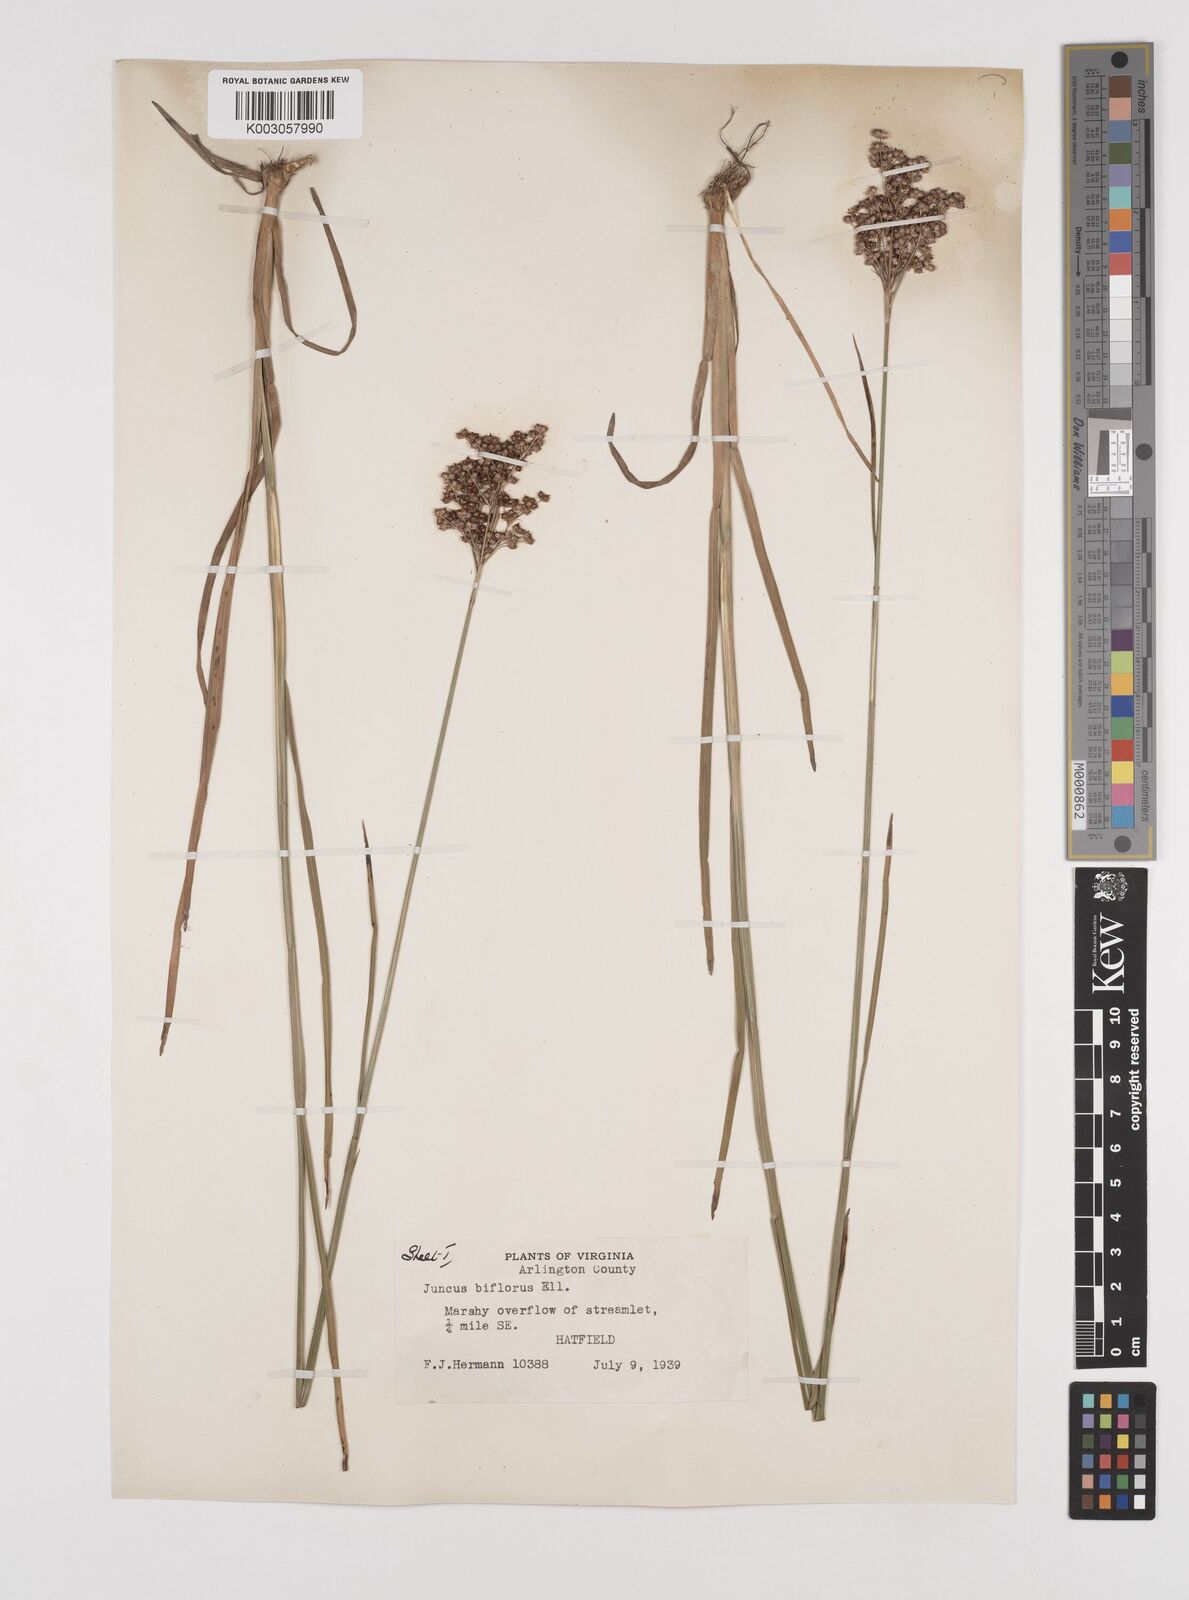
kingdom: Plantae
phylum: Tracheophyta
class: Liliopsida
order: Poales
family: Juncaceae
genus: Juncus
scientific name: Juncus marginatus
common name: Grass-leaf rush
